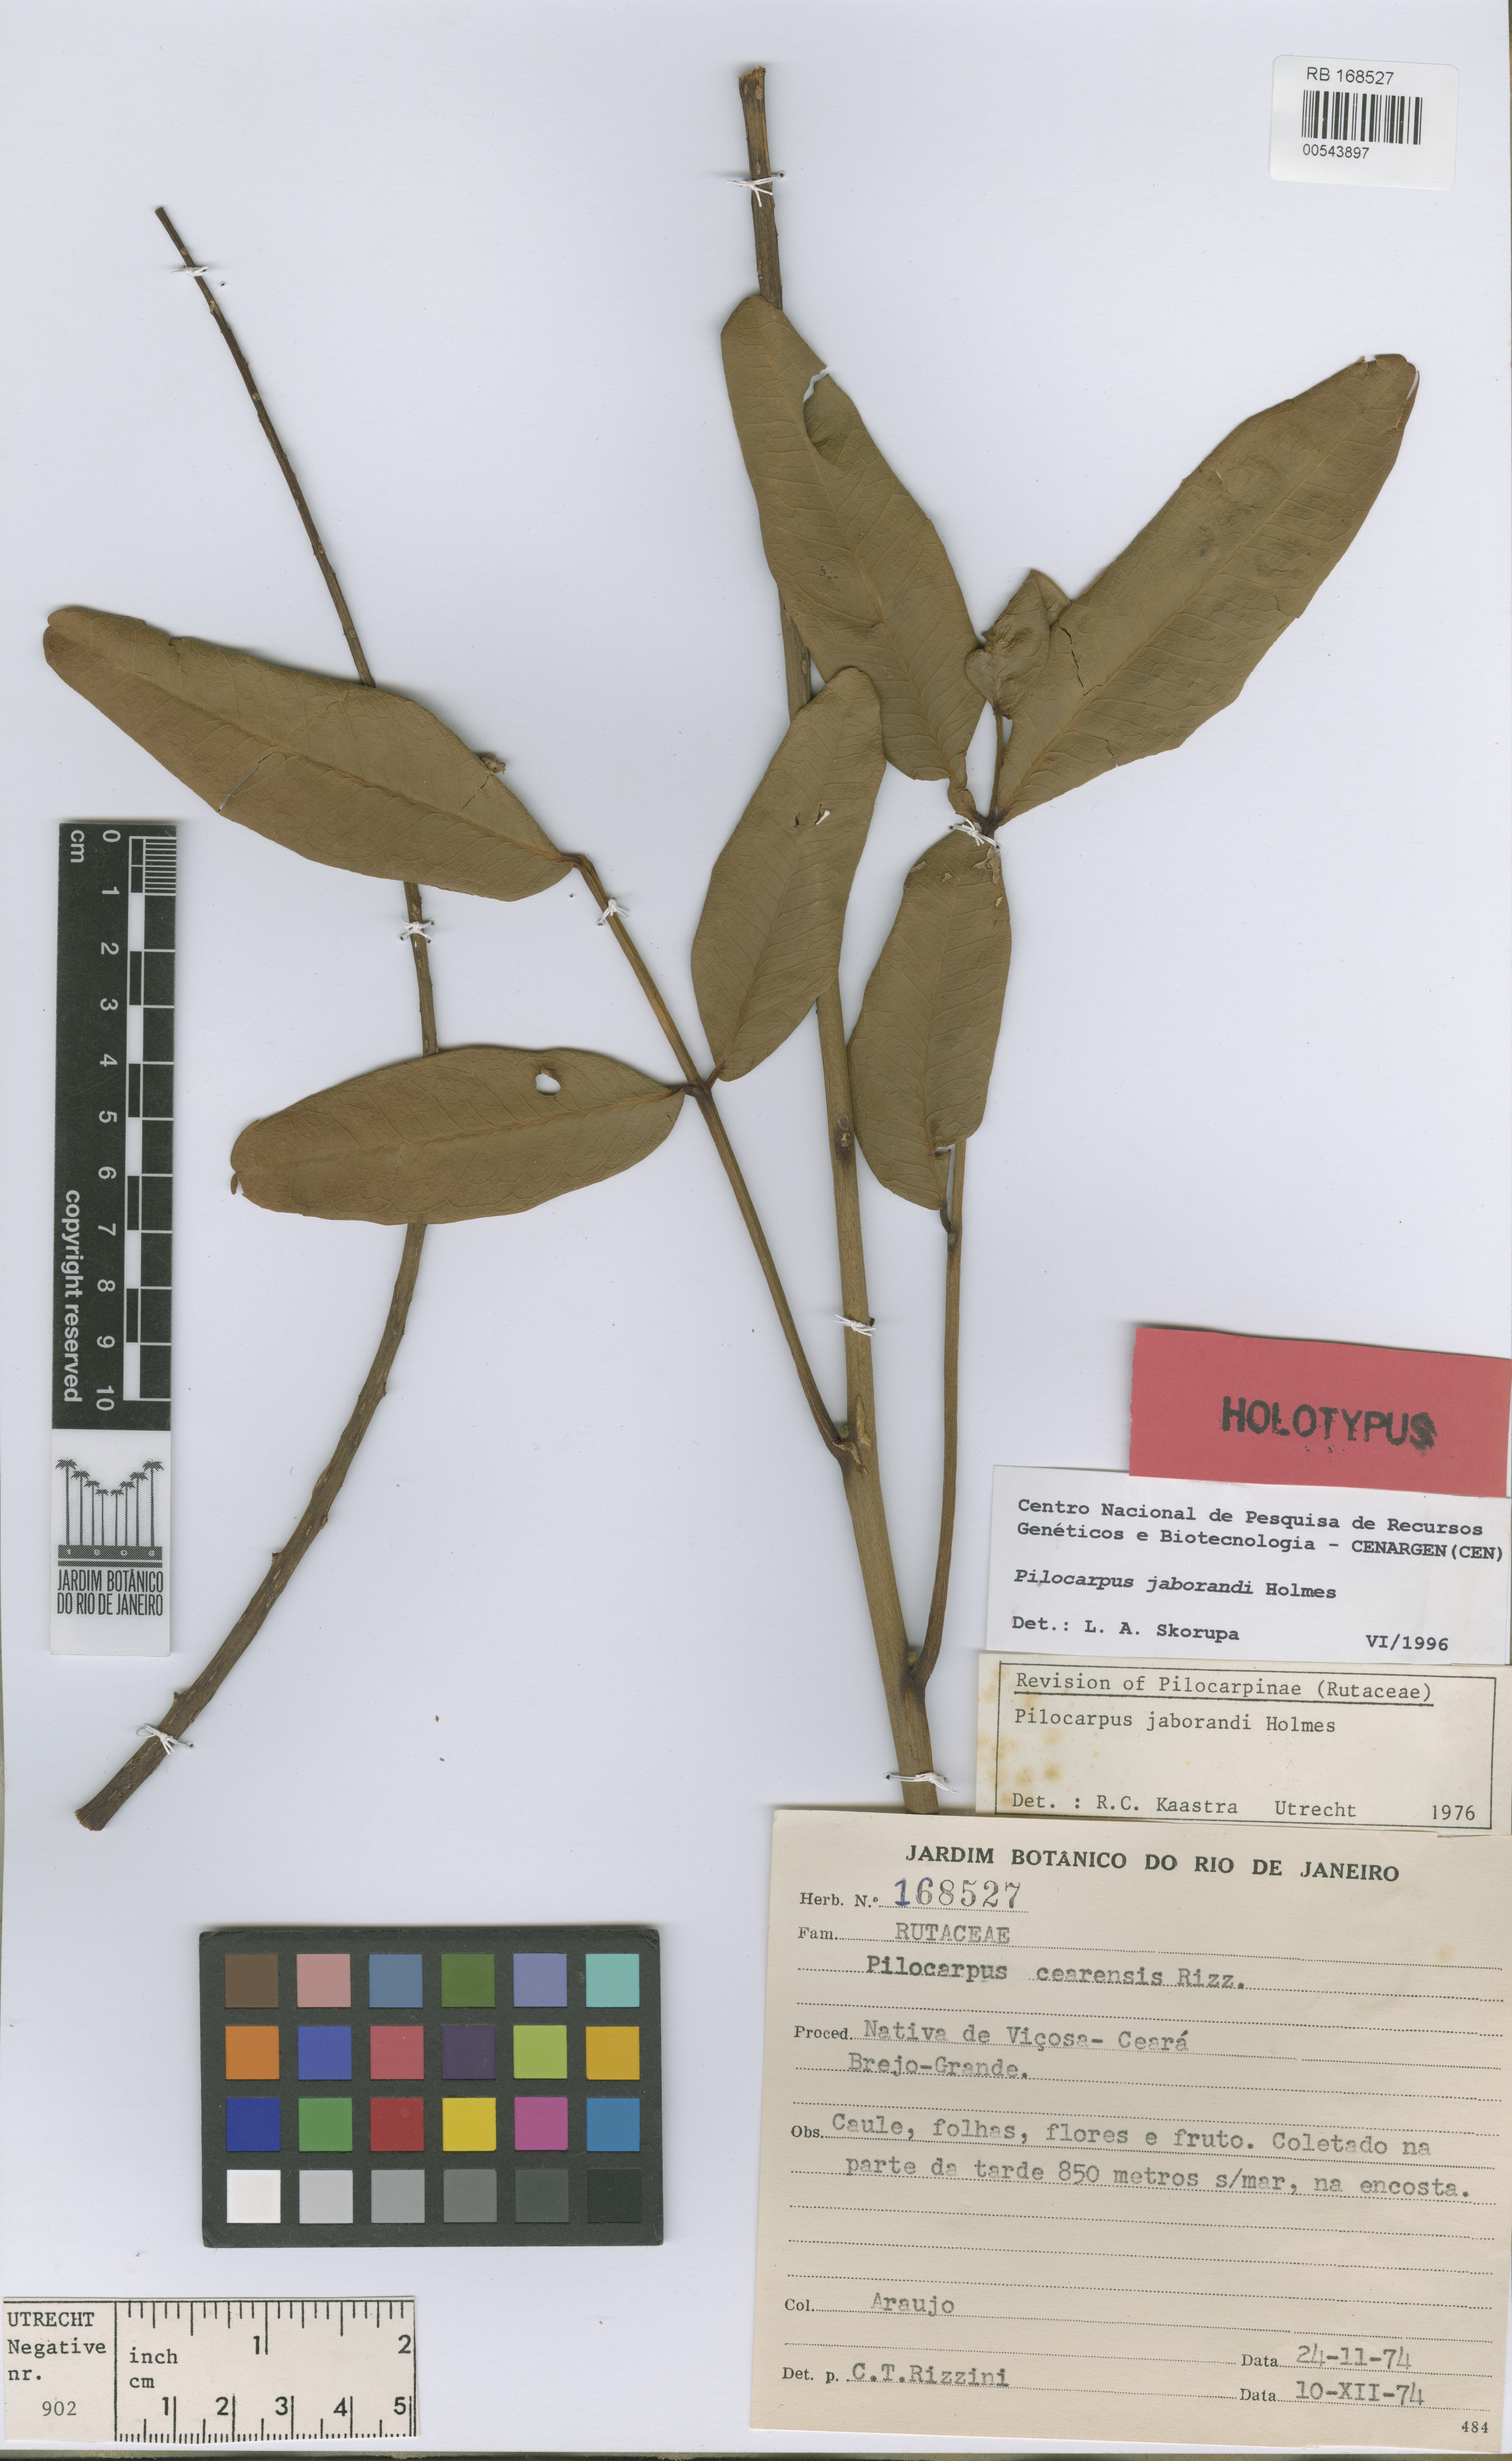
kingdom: Plantae
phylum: Tracheophyta
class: Magnoliopsida
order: Sapindales
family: Rutaceae
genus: Pilocarpus
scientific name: Pilocarpus jaborandi
